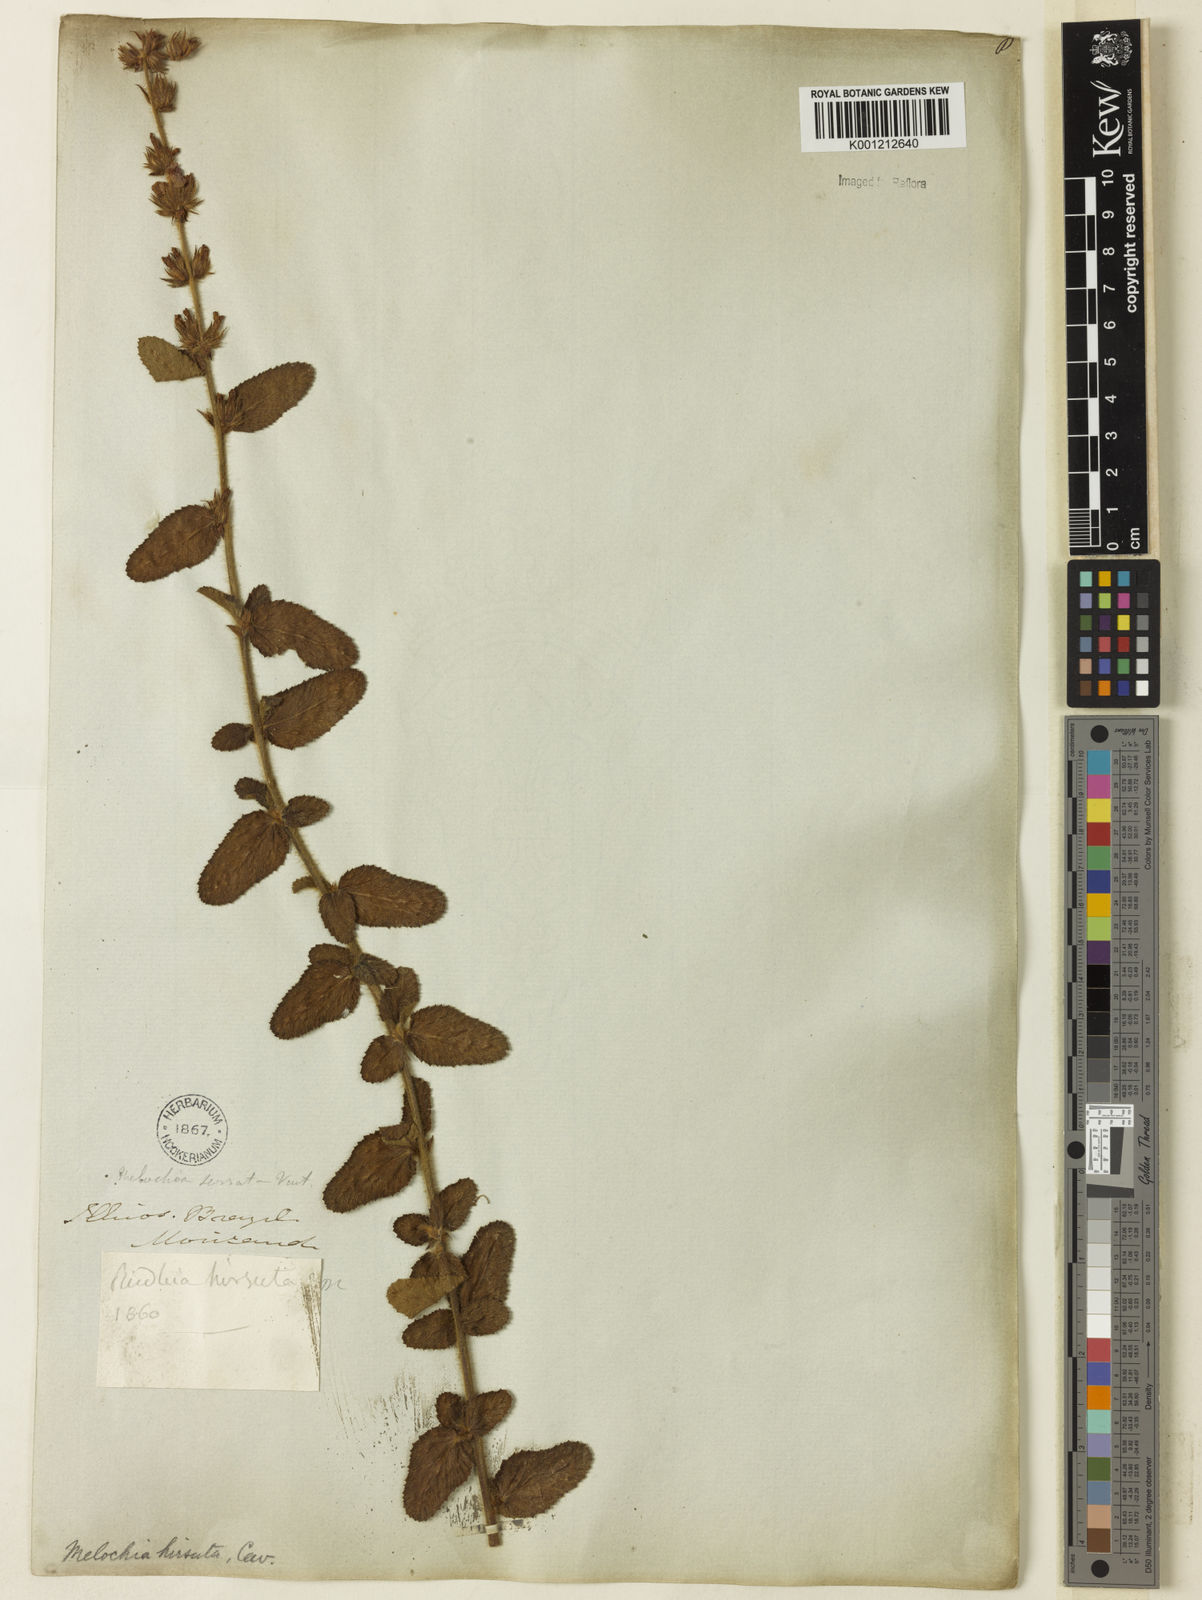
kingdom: Plantae
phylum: Tracheophyta
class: Magnoliopsida
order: Malvales
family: Malvaceae
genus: Melochia
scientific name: Melochia spicata
